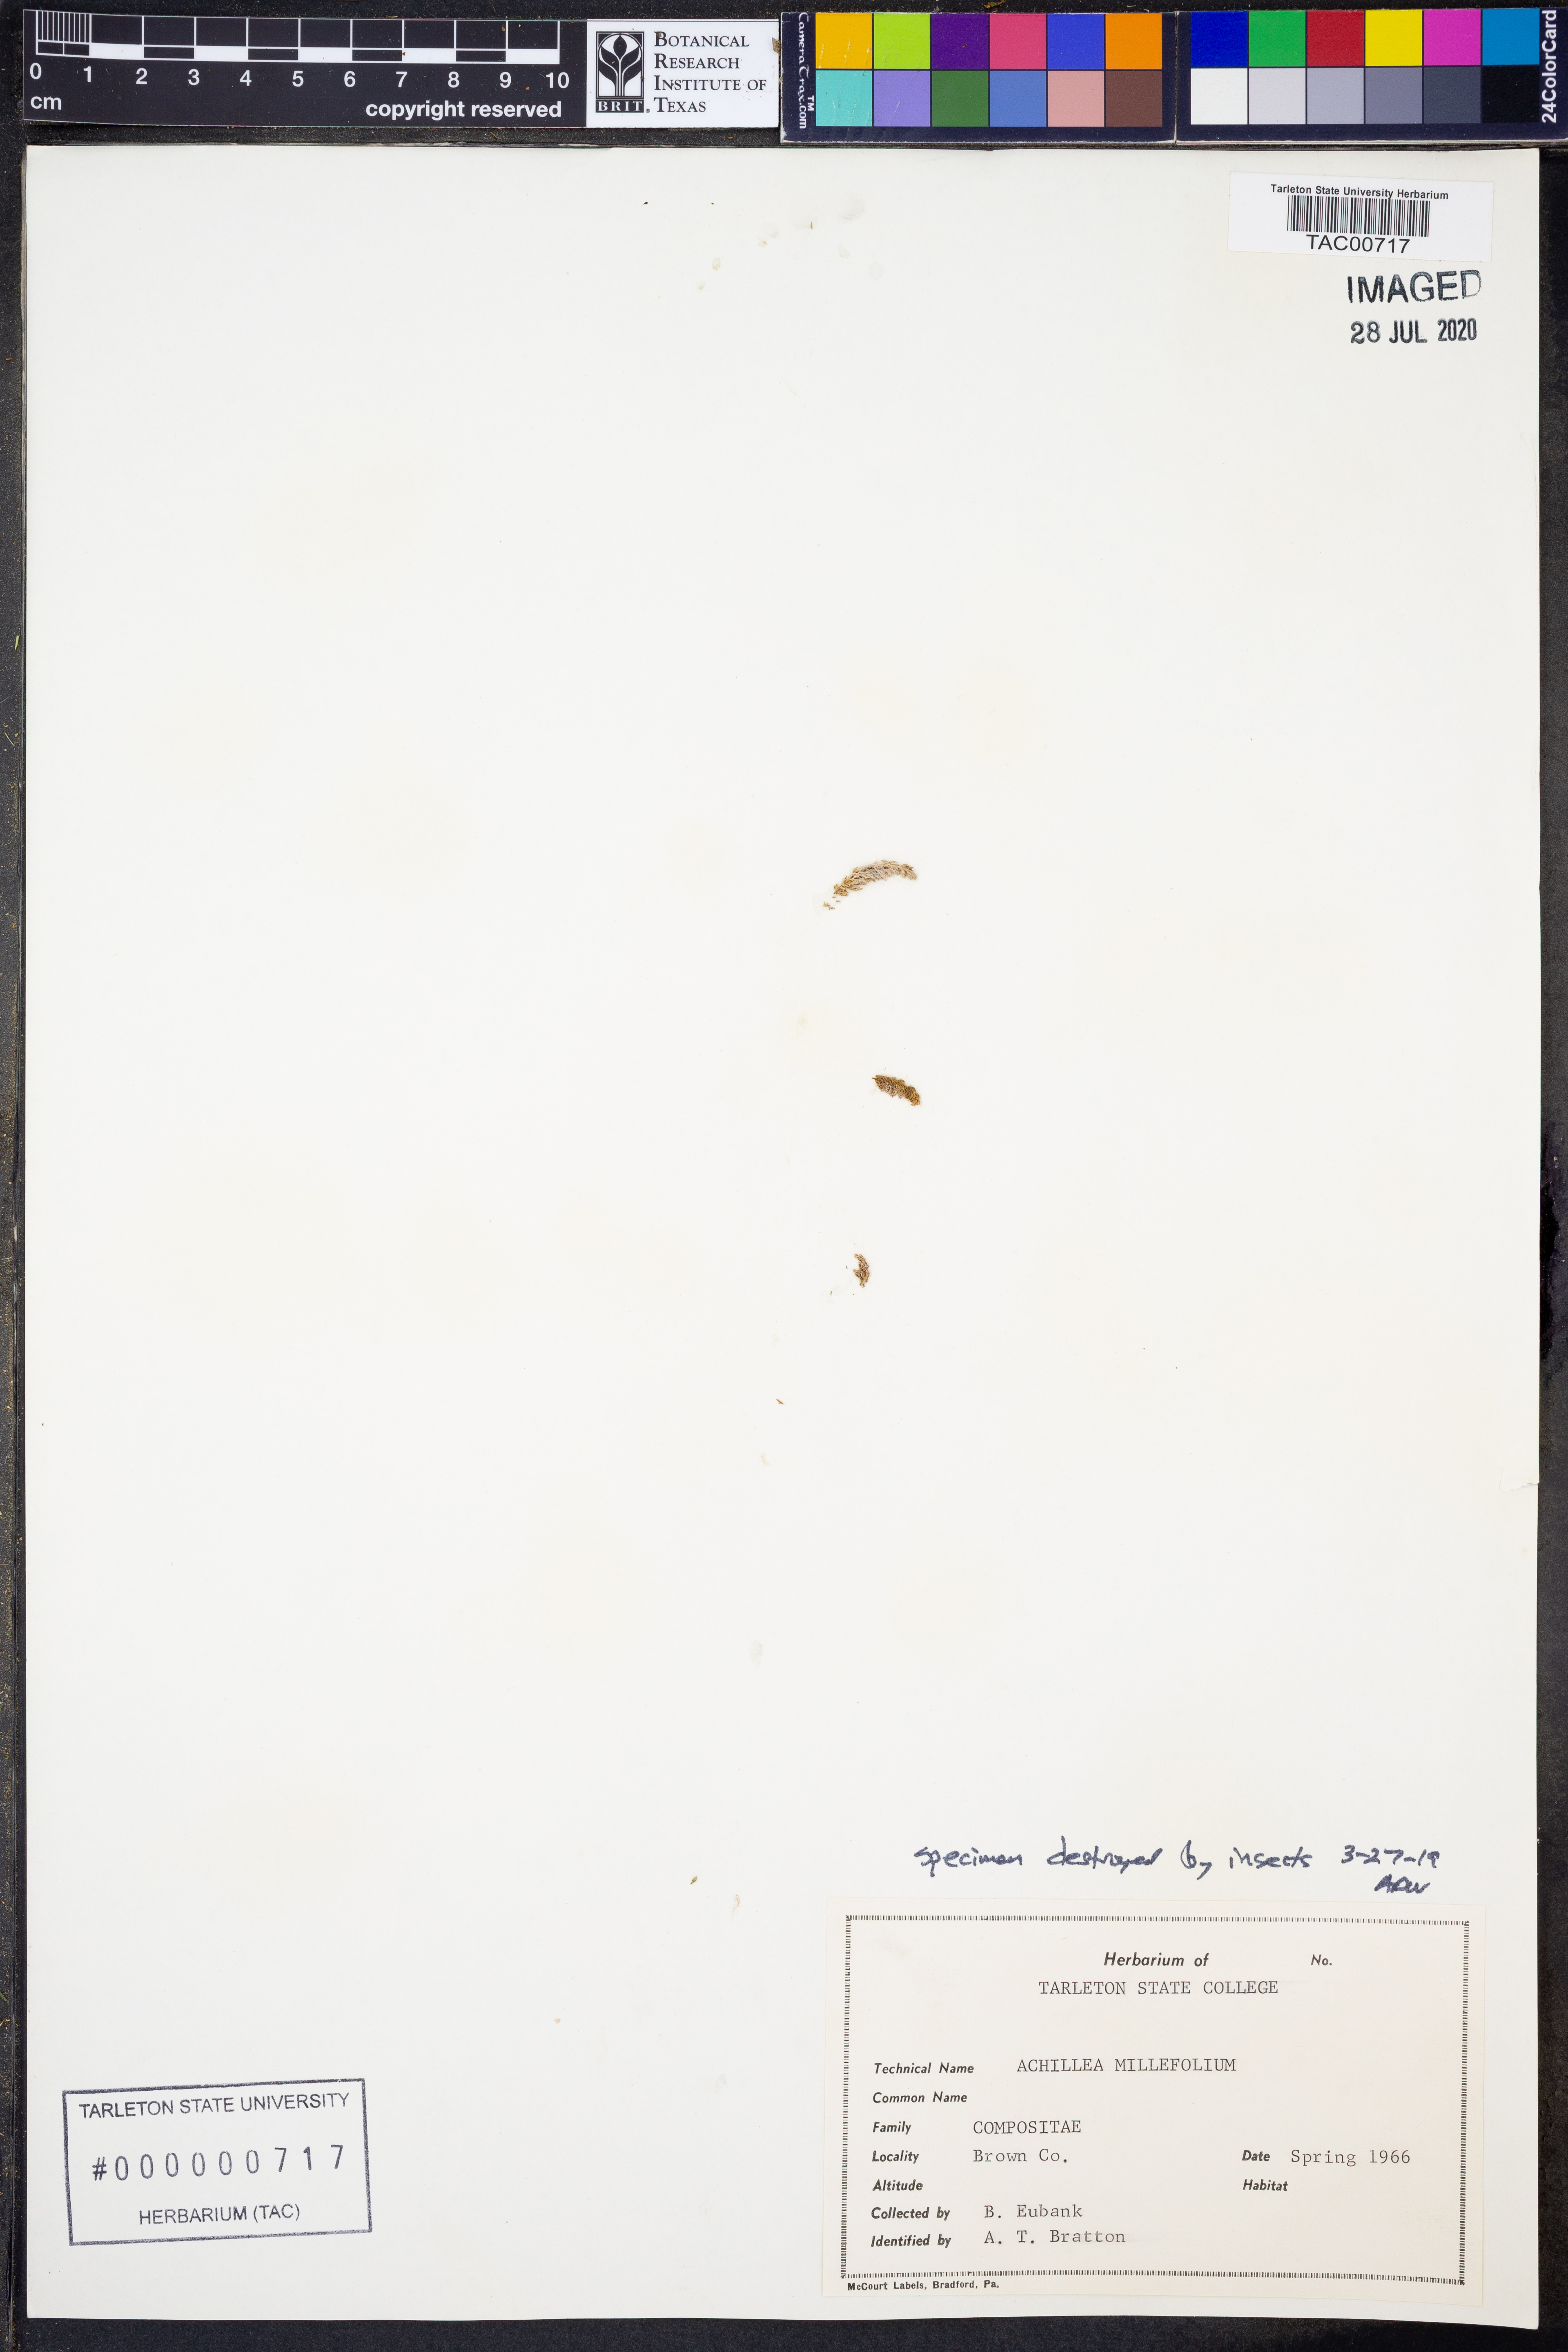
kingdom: Plantae
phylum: Tracheophyta
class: Magnoliopsida
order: Asterales
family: Asteraceae
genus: Achillea
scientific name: Achillea millefolium
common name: Yarrow
